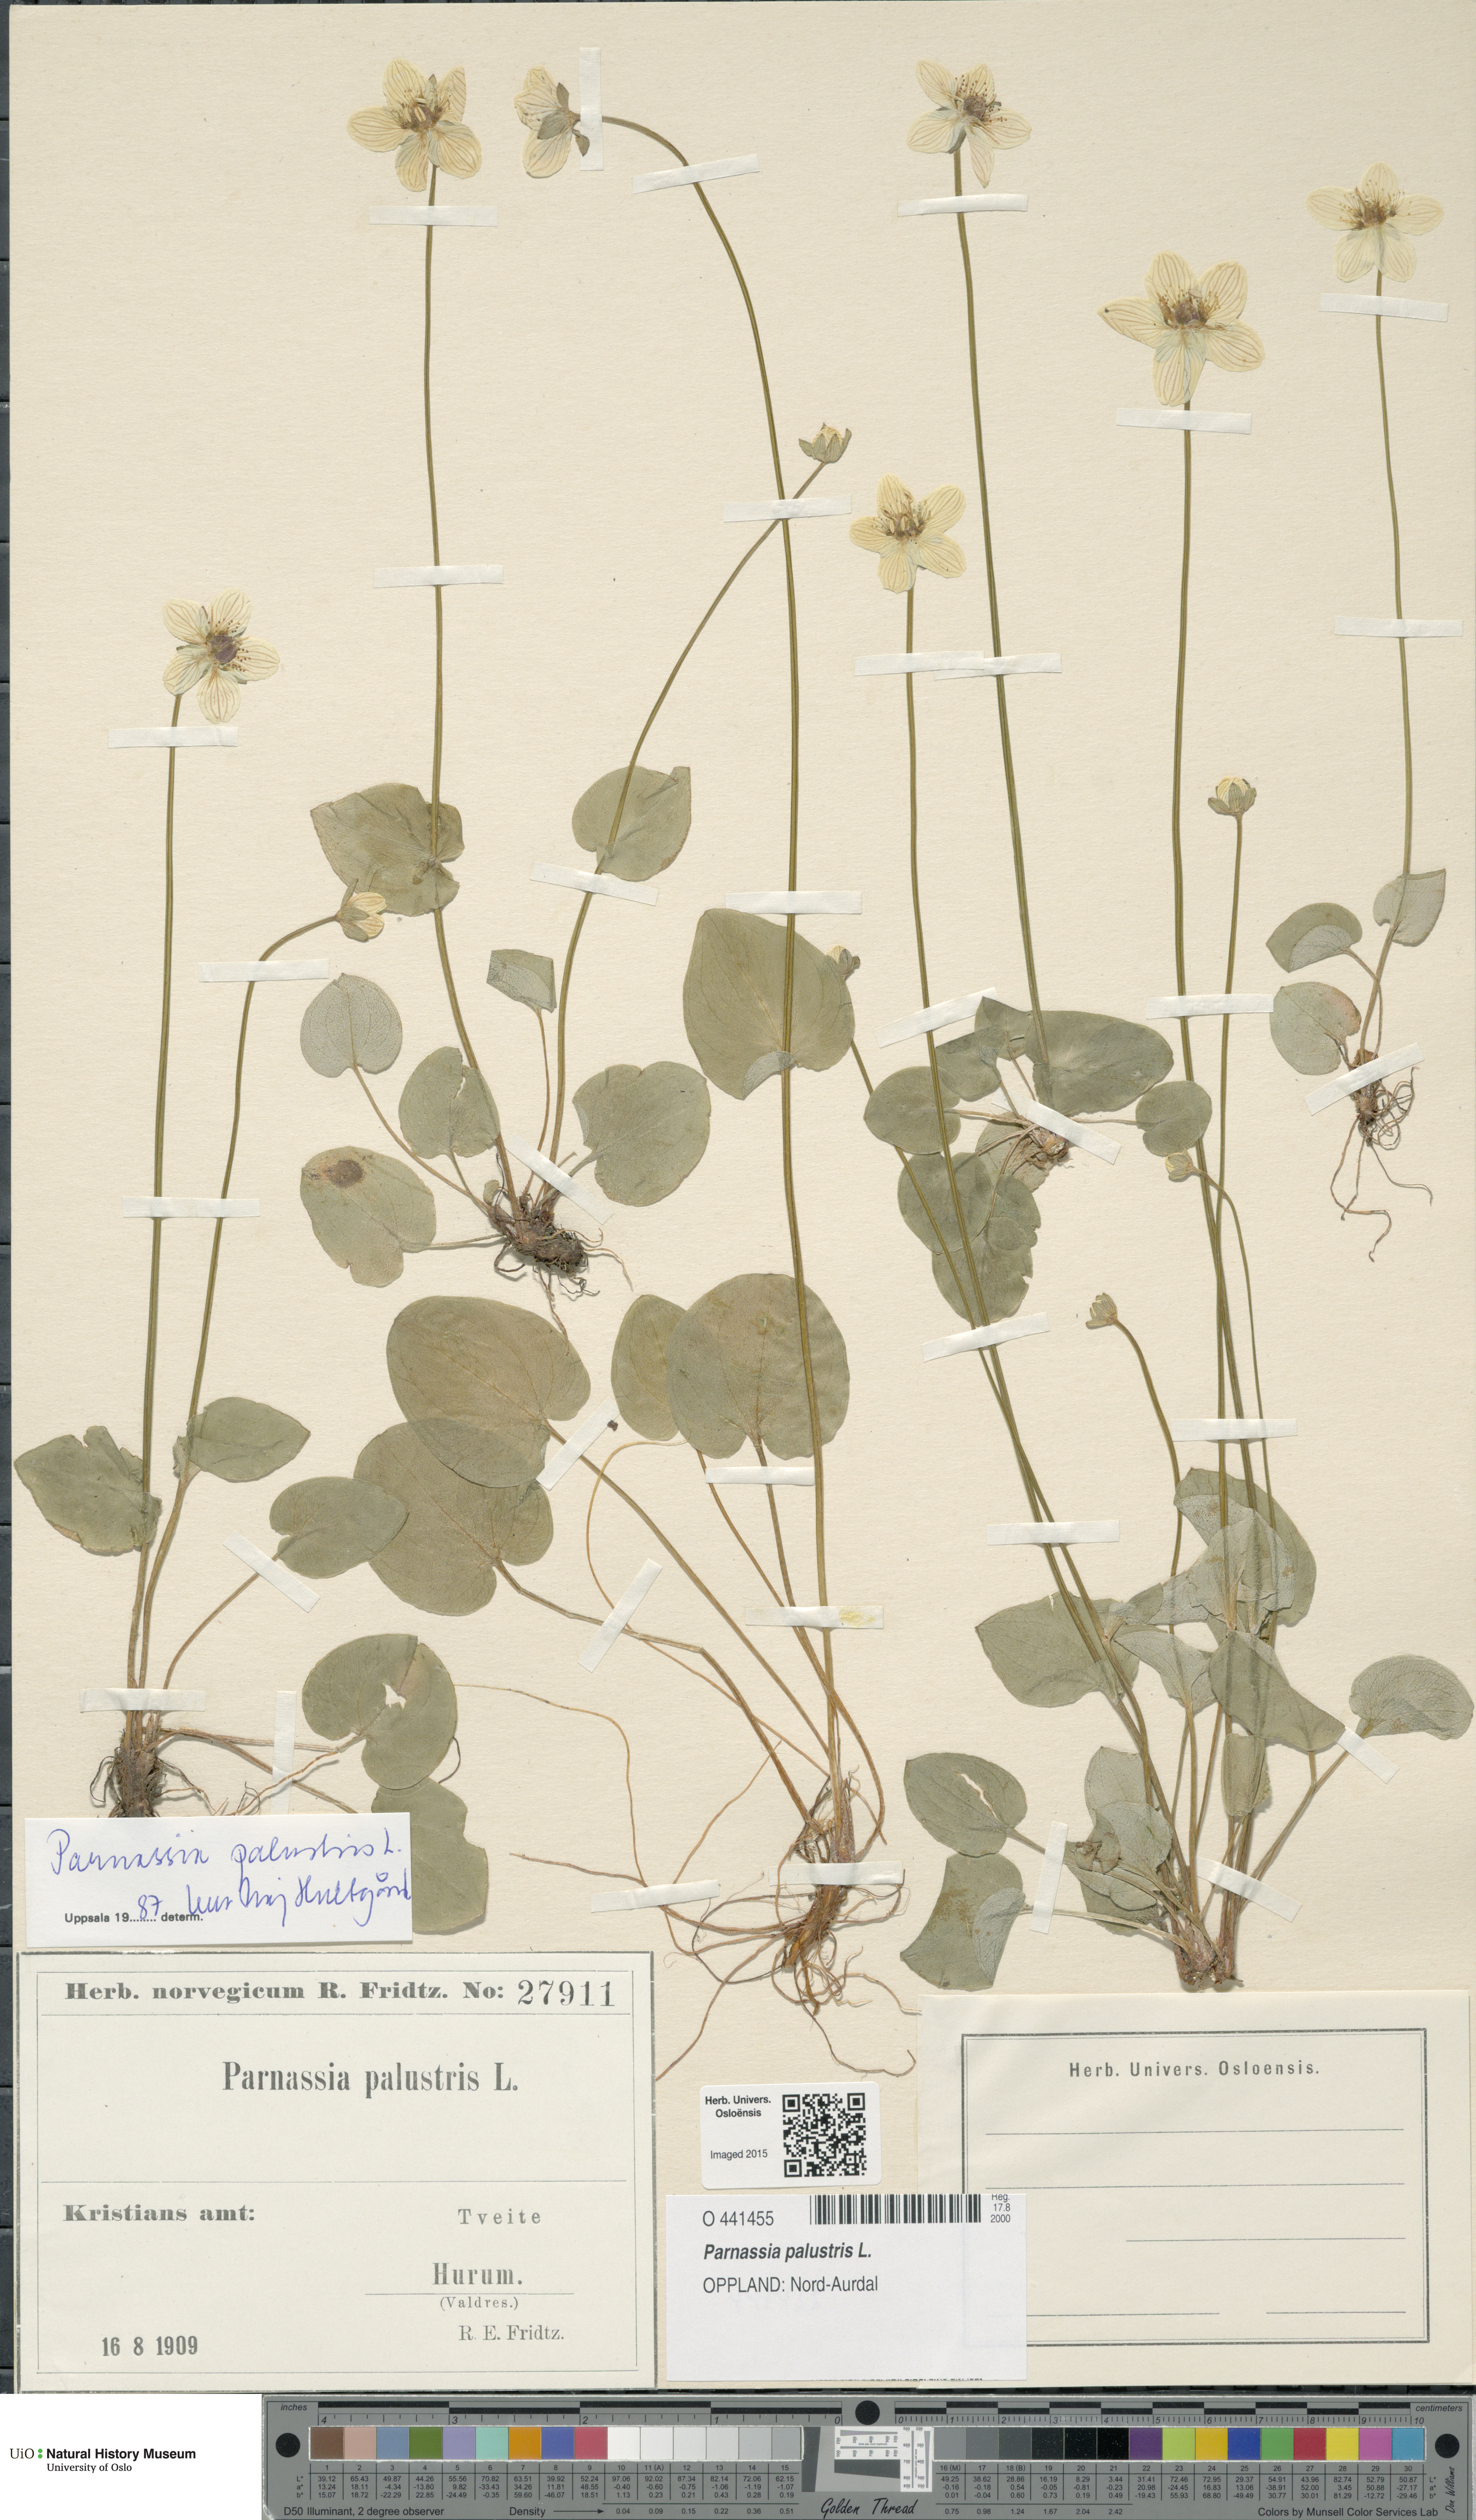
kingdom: Plantae
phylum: Tracheophyta
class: Magnoliopsida
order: Celastrales
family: Parnassiaceae
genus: Parnassia
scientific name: Parnassia palustris
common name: Grass-of-parnassus
